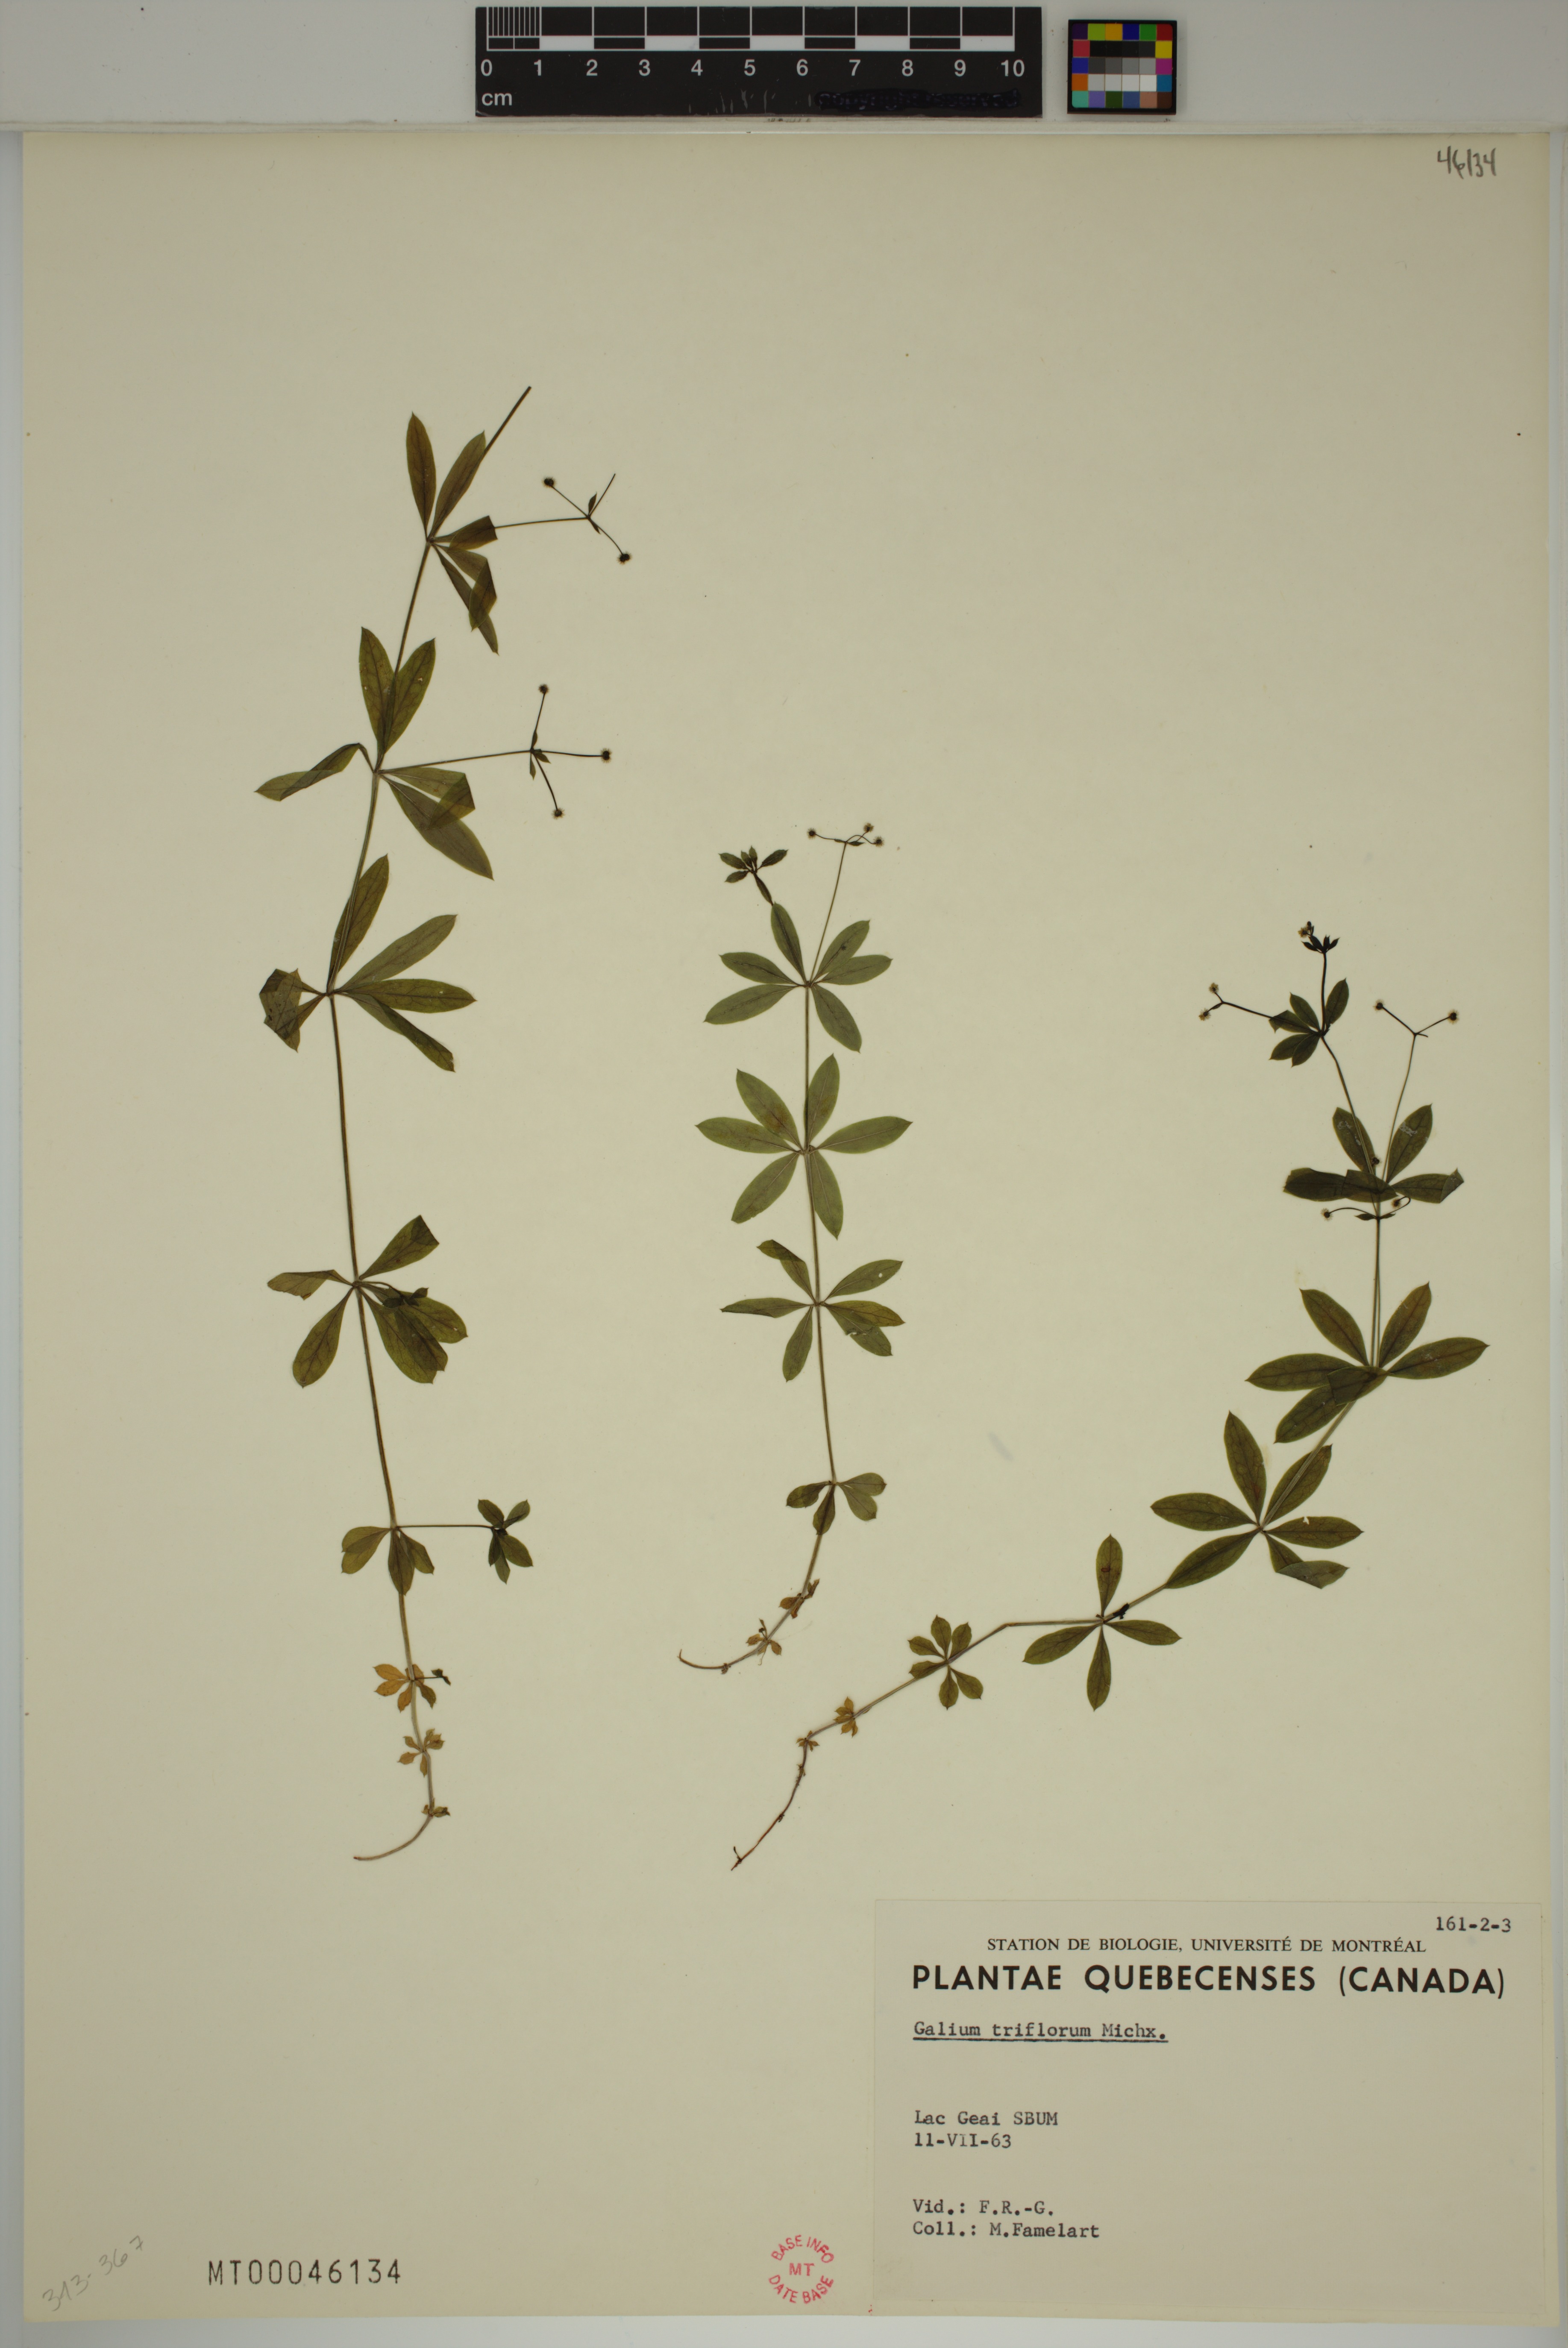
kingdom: Plantae
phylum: Tracheophyta
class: Magnoliopsida
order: Gentianales
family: Rubiaceae
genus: Galium
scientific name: Galium triflorum
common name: Fragrant bedstraw
